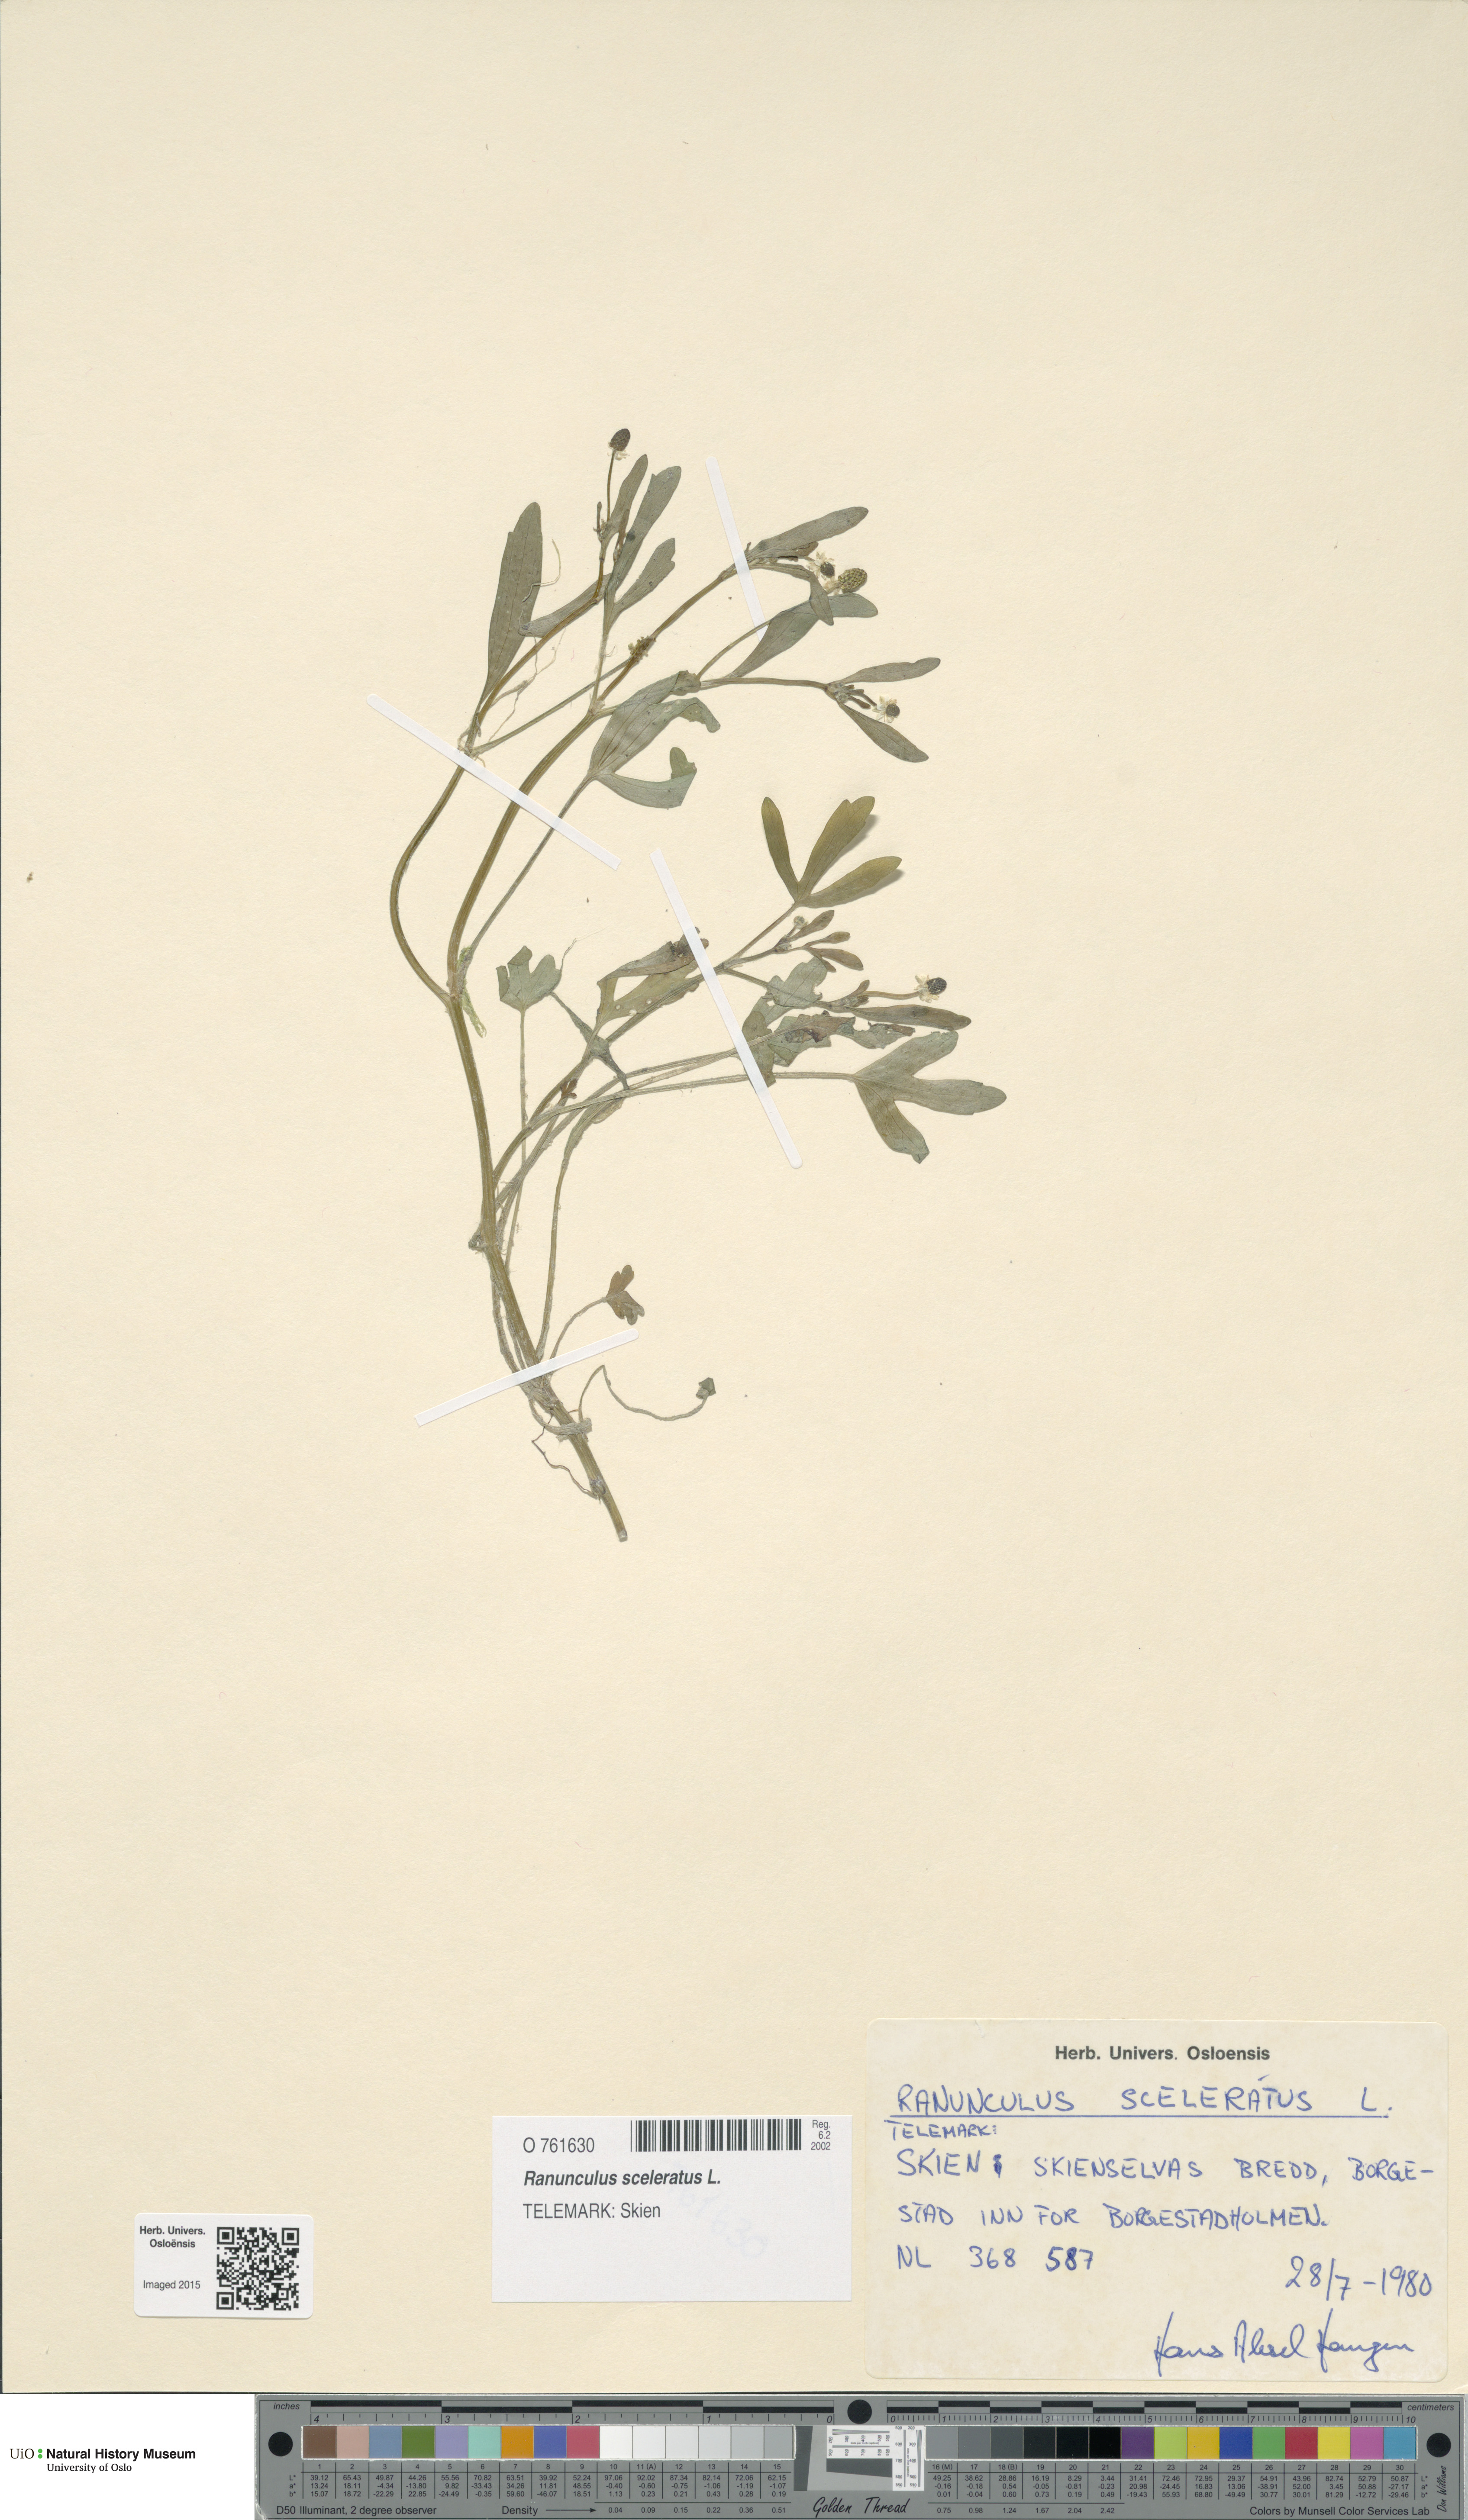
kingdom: Plantae
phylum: Tracheophyta
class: Magnoliopsida
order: Ranunculales
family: Ranunculaceae
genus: Ranunculus
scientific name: Ranunculus sceleratus
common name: Celery-leaved buttercup
